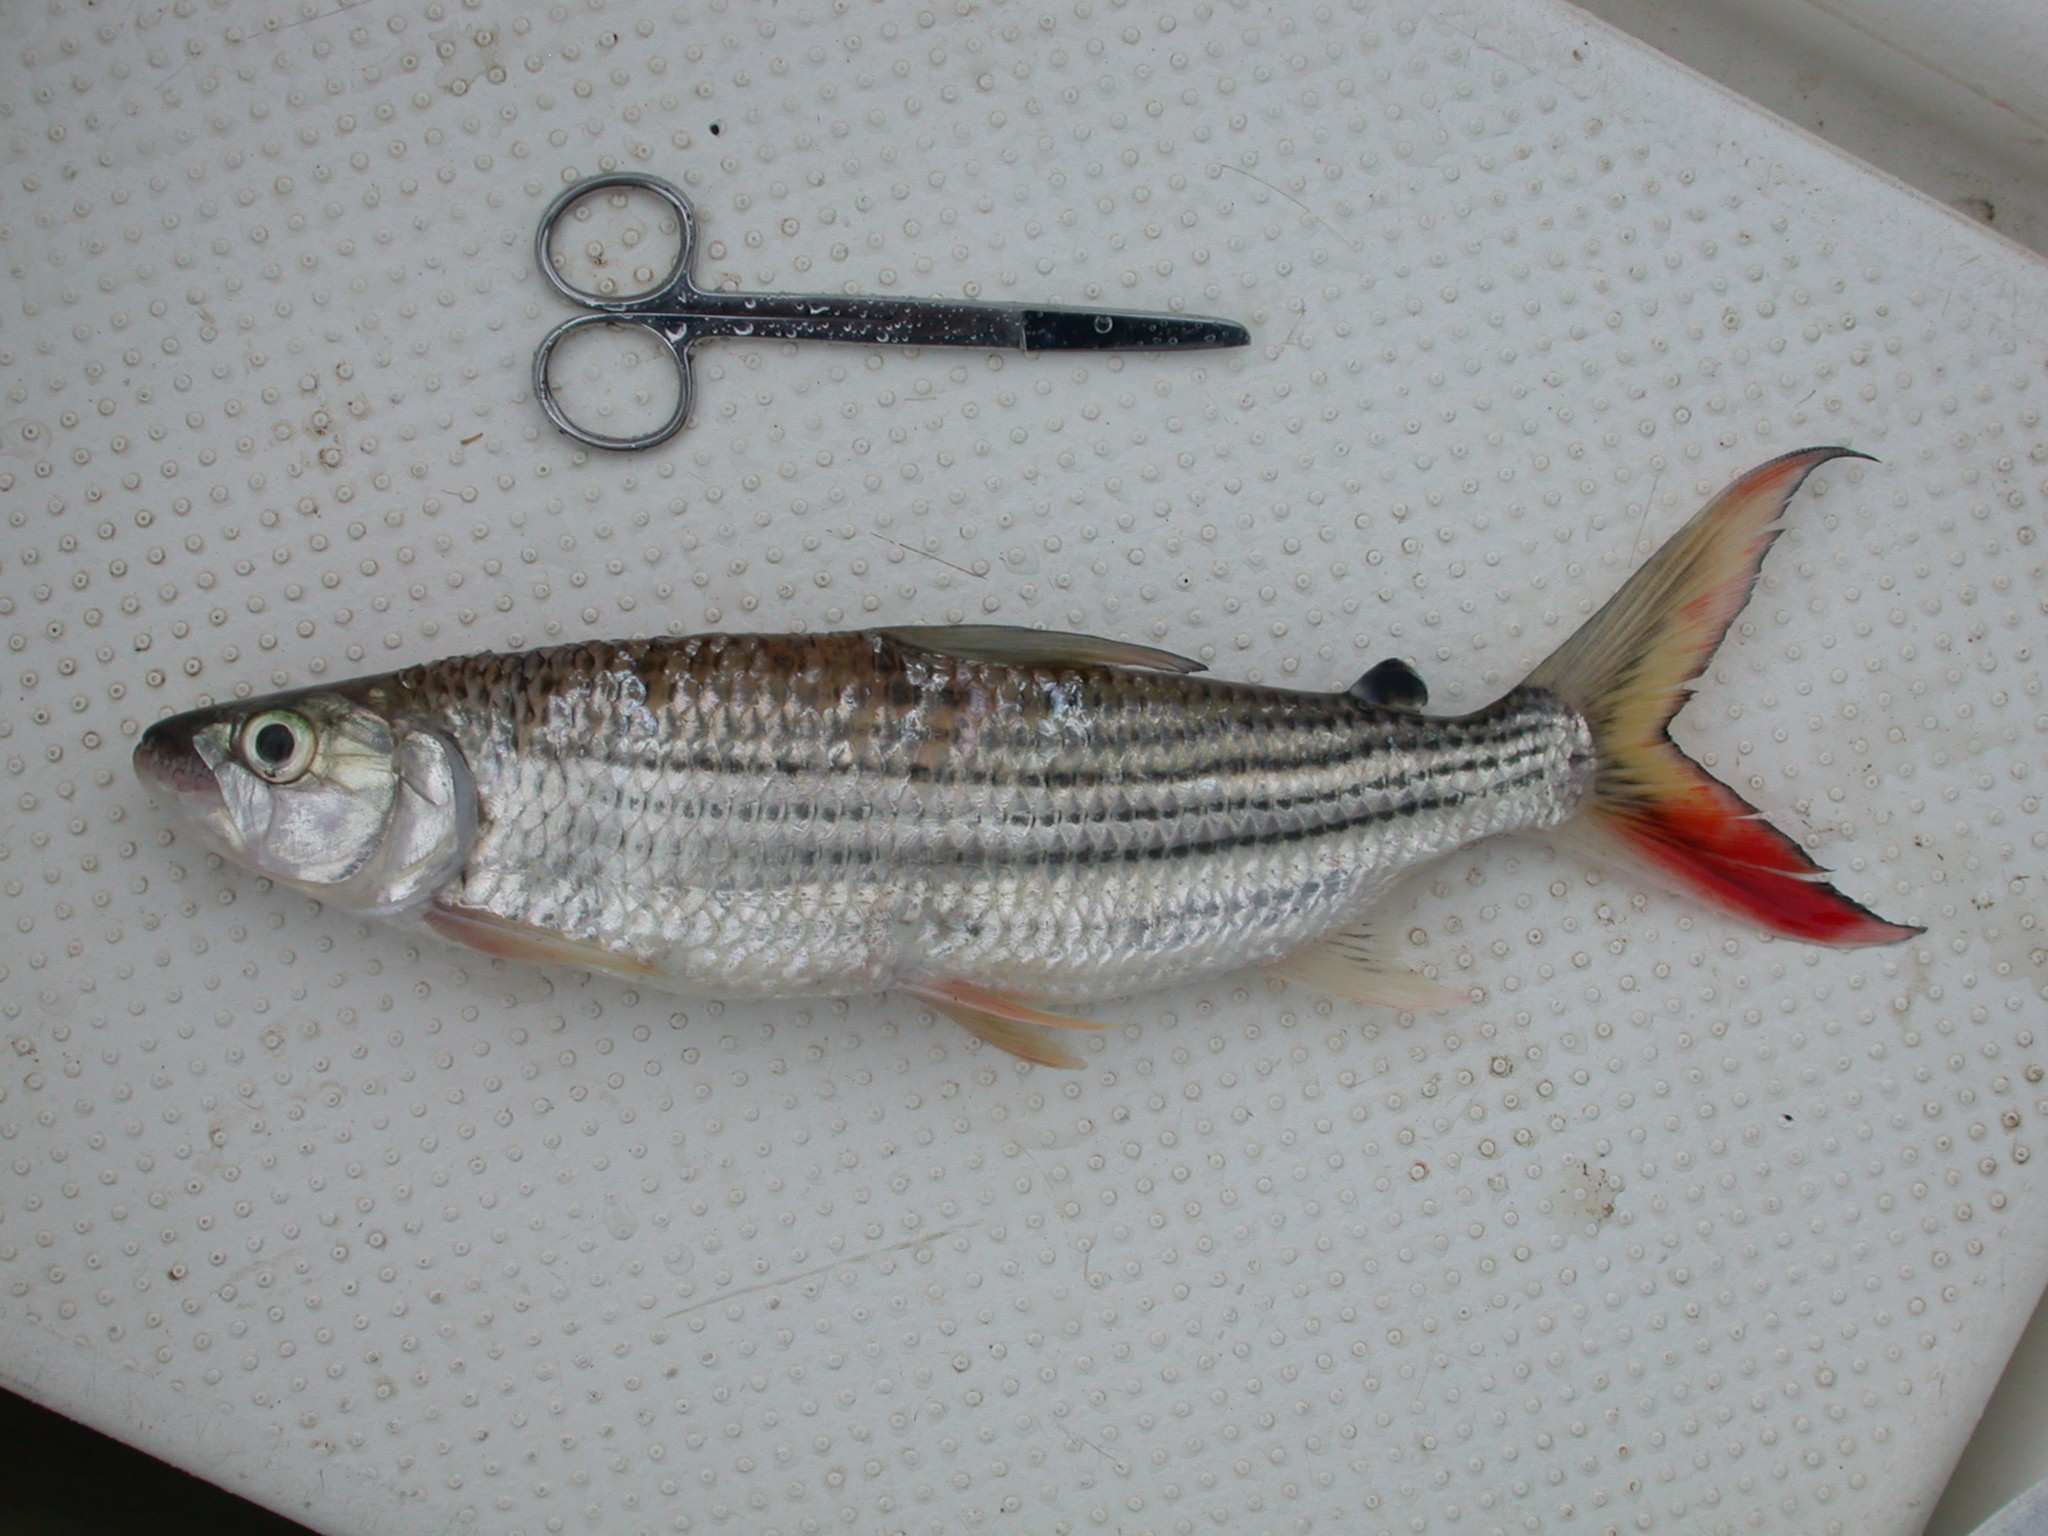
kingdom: Animalia
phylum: Chordata
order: Characiformes
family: Alestidae
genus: Hydrocynus
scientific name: Hydrocynus vittatus
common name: Tigerfish
